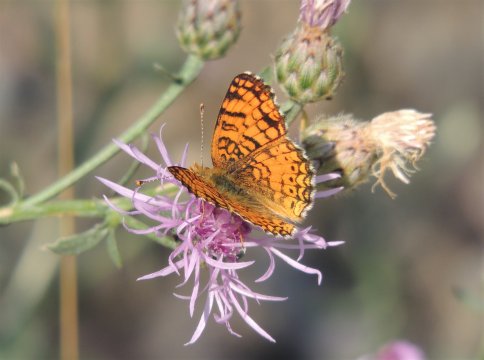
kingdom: Animalia
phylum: Arthropoda
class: Insecta
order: Lepidoptera
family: Nymphalidae
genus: Eresia
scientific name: Eresia aveyrona
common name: Mylitta Crescent
